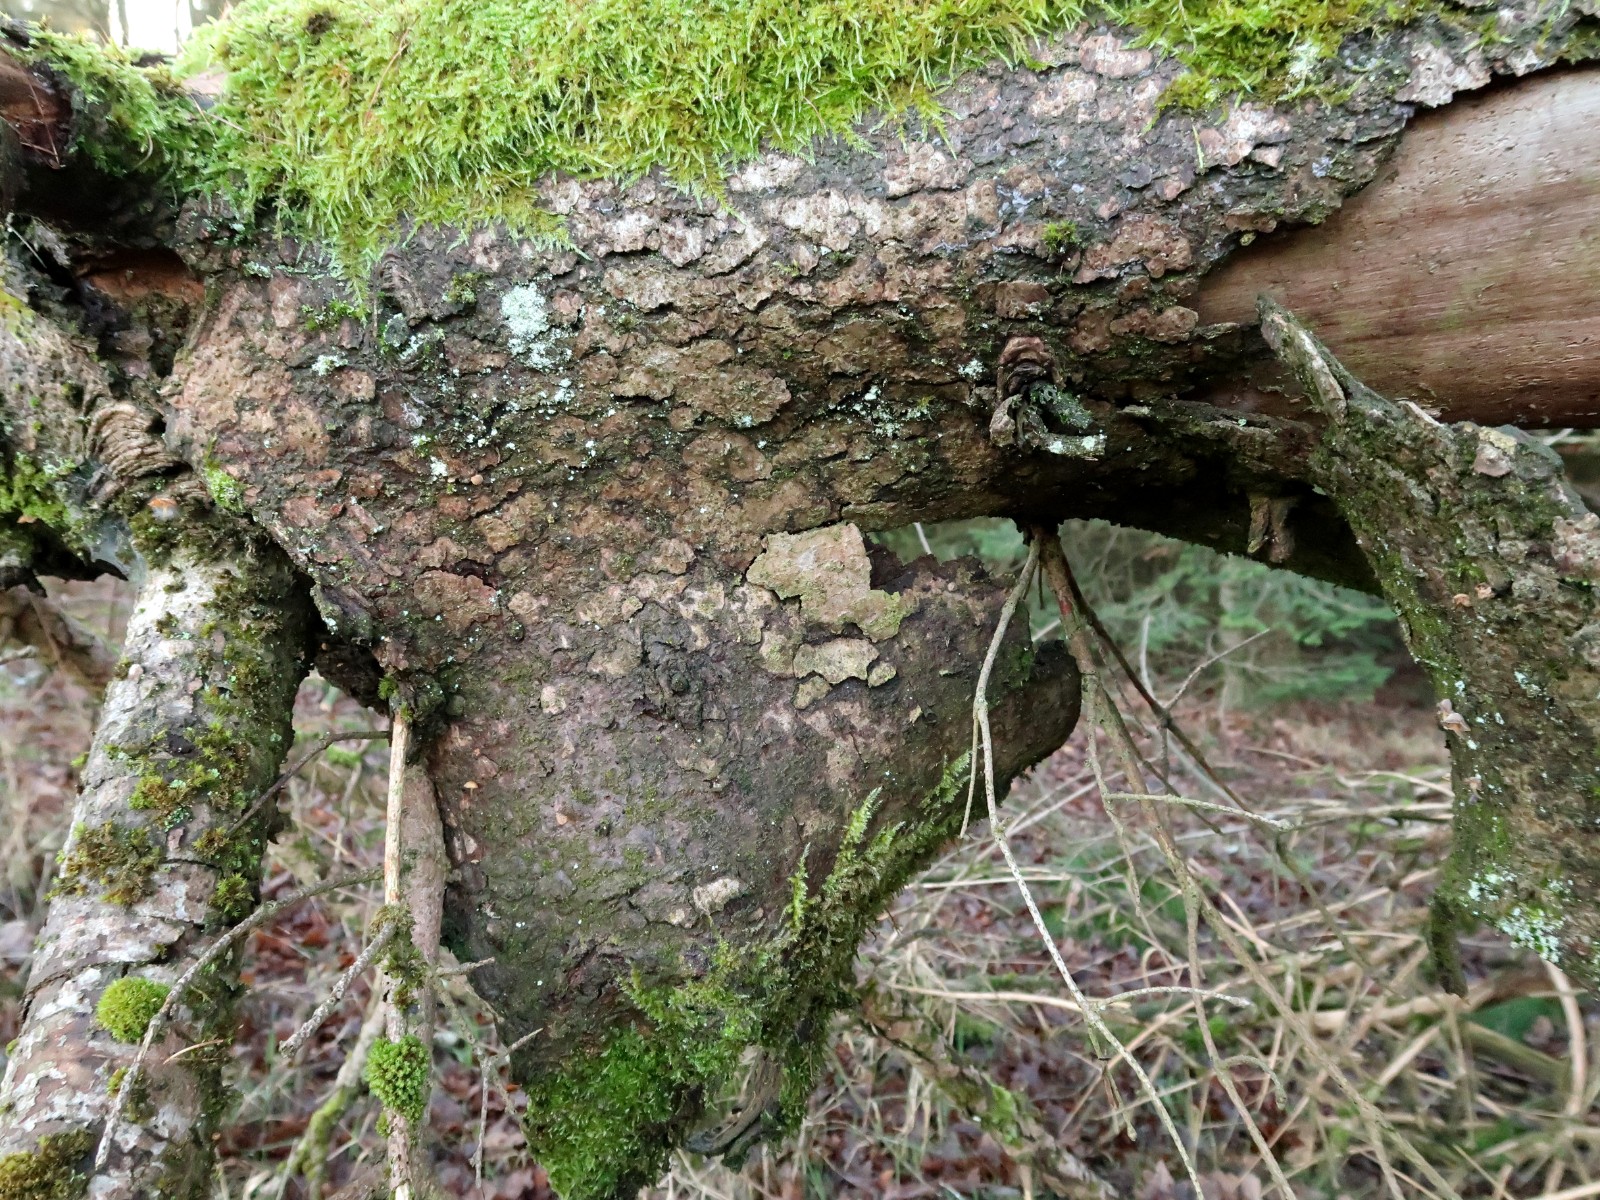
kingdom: Fungi
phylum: Basidiomycota
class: Agaricomycetes
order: Hymenochaetales
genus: Trichaptum
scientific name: Trichaptum fuscoviolaceum
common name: tandet violporesvamp
